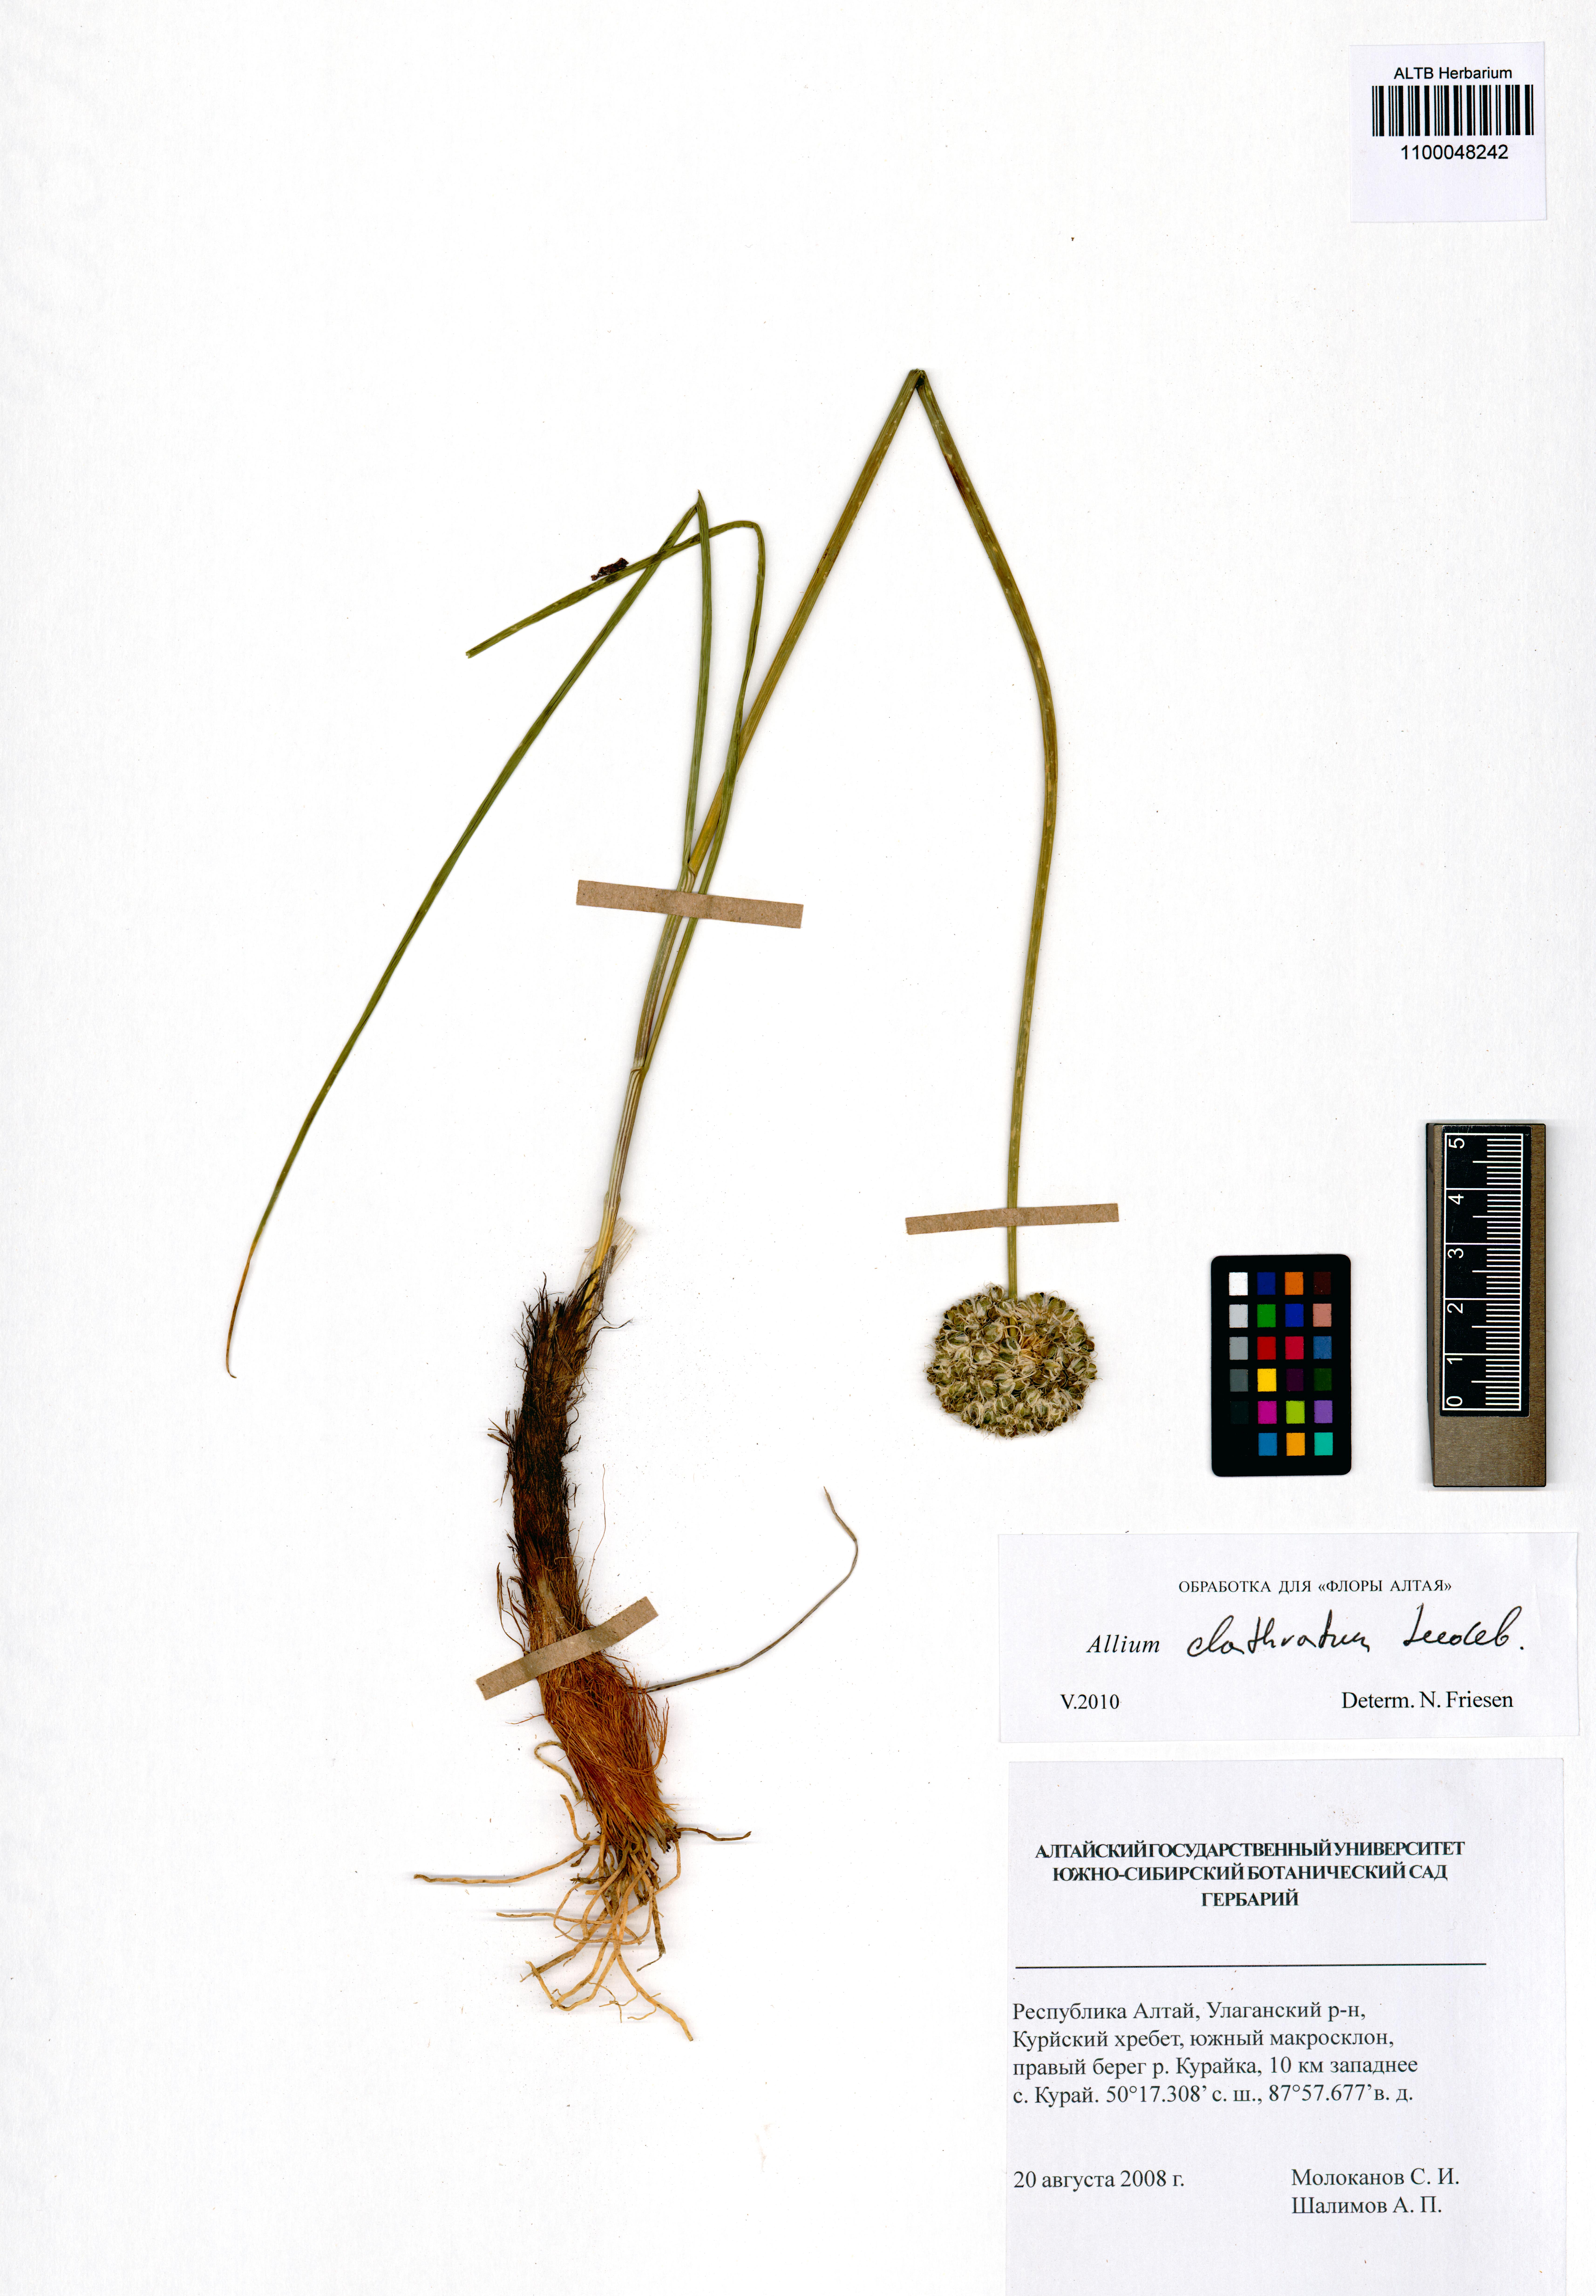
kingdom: Plantae
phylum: Tracheophyta
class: Liliopsida
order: Asparagales
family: Amaryllidaceae
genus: Allium
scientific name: Allium clathratum
